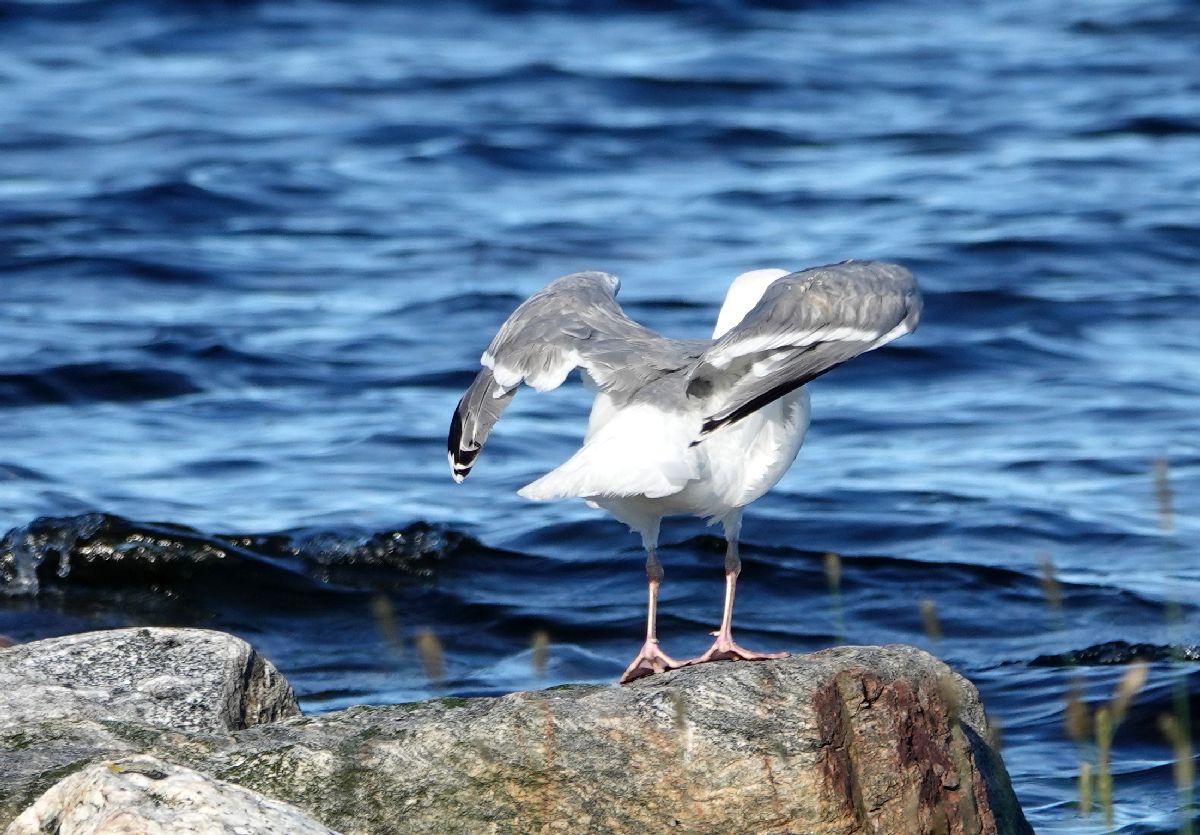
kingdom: Animalia
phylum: Chordata
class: Aves
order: Charadriiformes
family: Laridae
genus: Larus
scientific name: Larus argentatus
